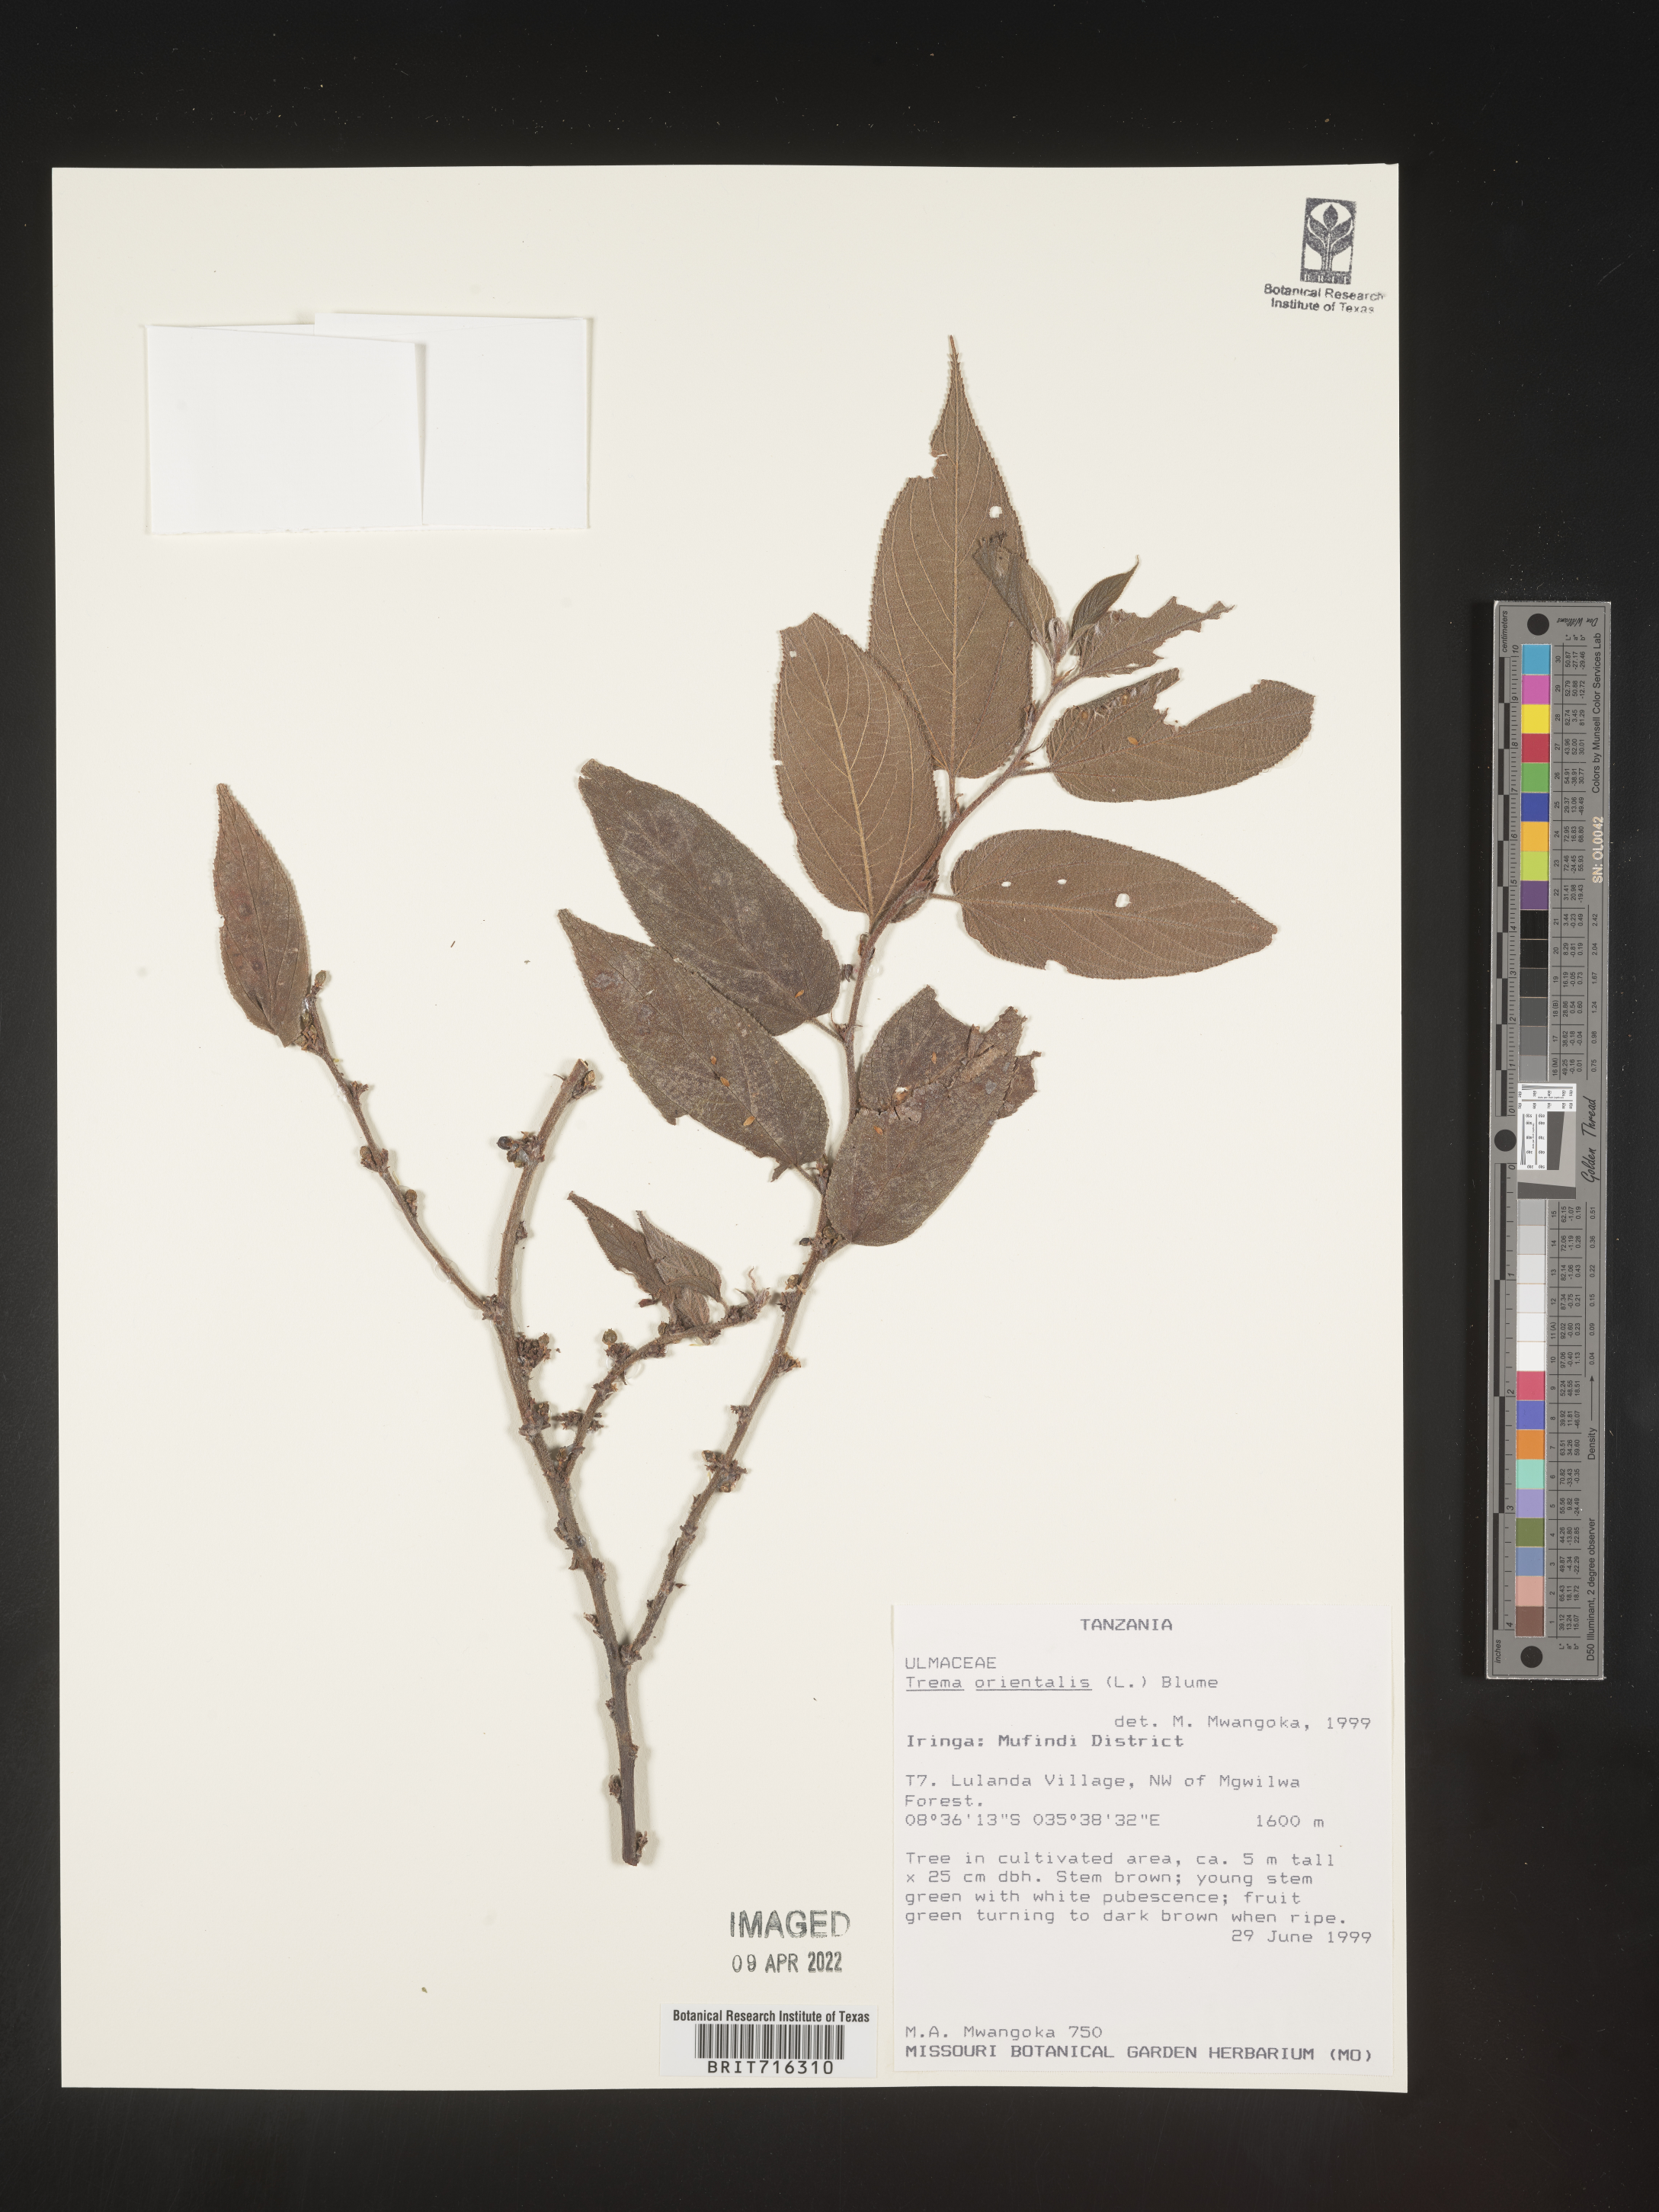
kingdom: Plantae
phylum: Tracheophyta
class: Magnoliopsida
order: Rosales
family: Cannabaceae
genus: Trema
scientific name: Trema
